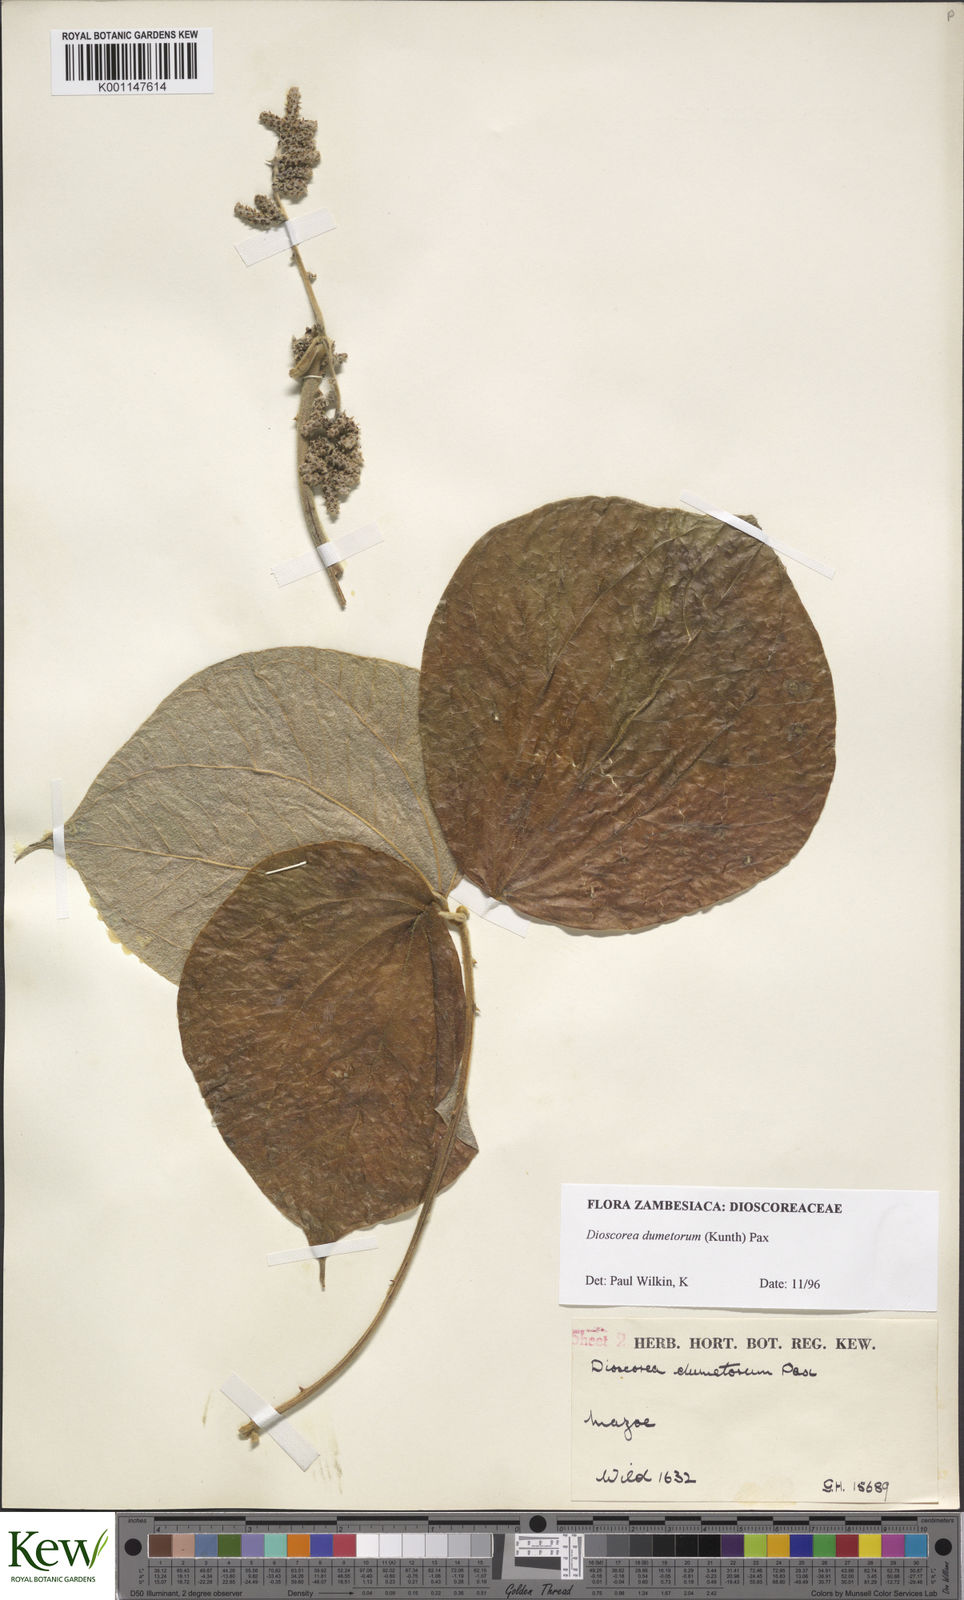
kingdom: Plantae
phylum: Tracheophyta
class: Liliopsida
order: Dioscoreales
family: Dioscoreaceae
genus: Dioscorea
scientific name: Dioscorea dumetorum
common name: African bitter yam
